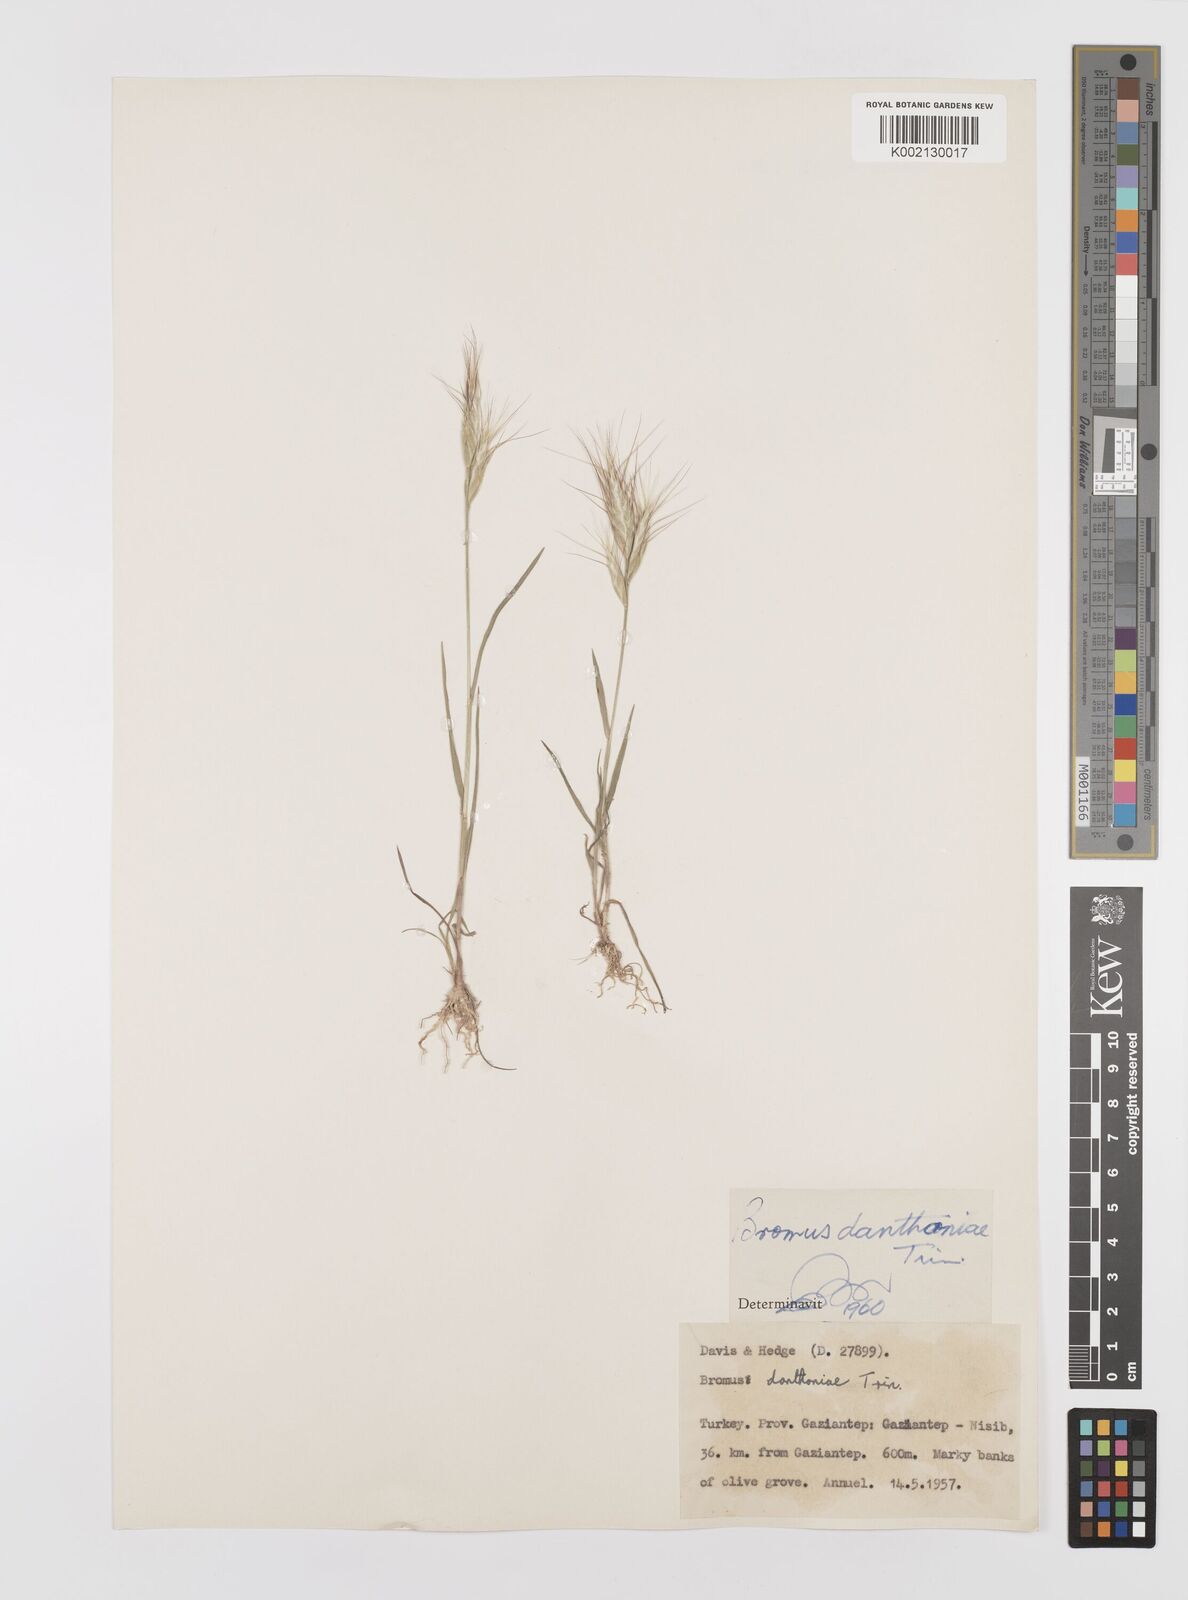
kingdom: Plantae
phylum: Tracheophyta
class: Liliopsida
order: Poales
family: Poaceae
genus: Bromus
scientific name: Bromus danthoniae
